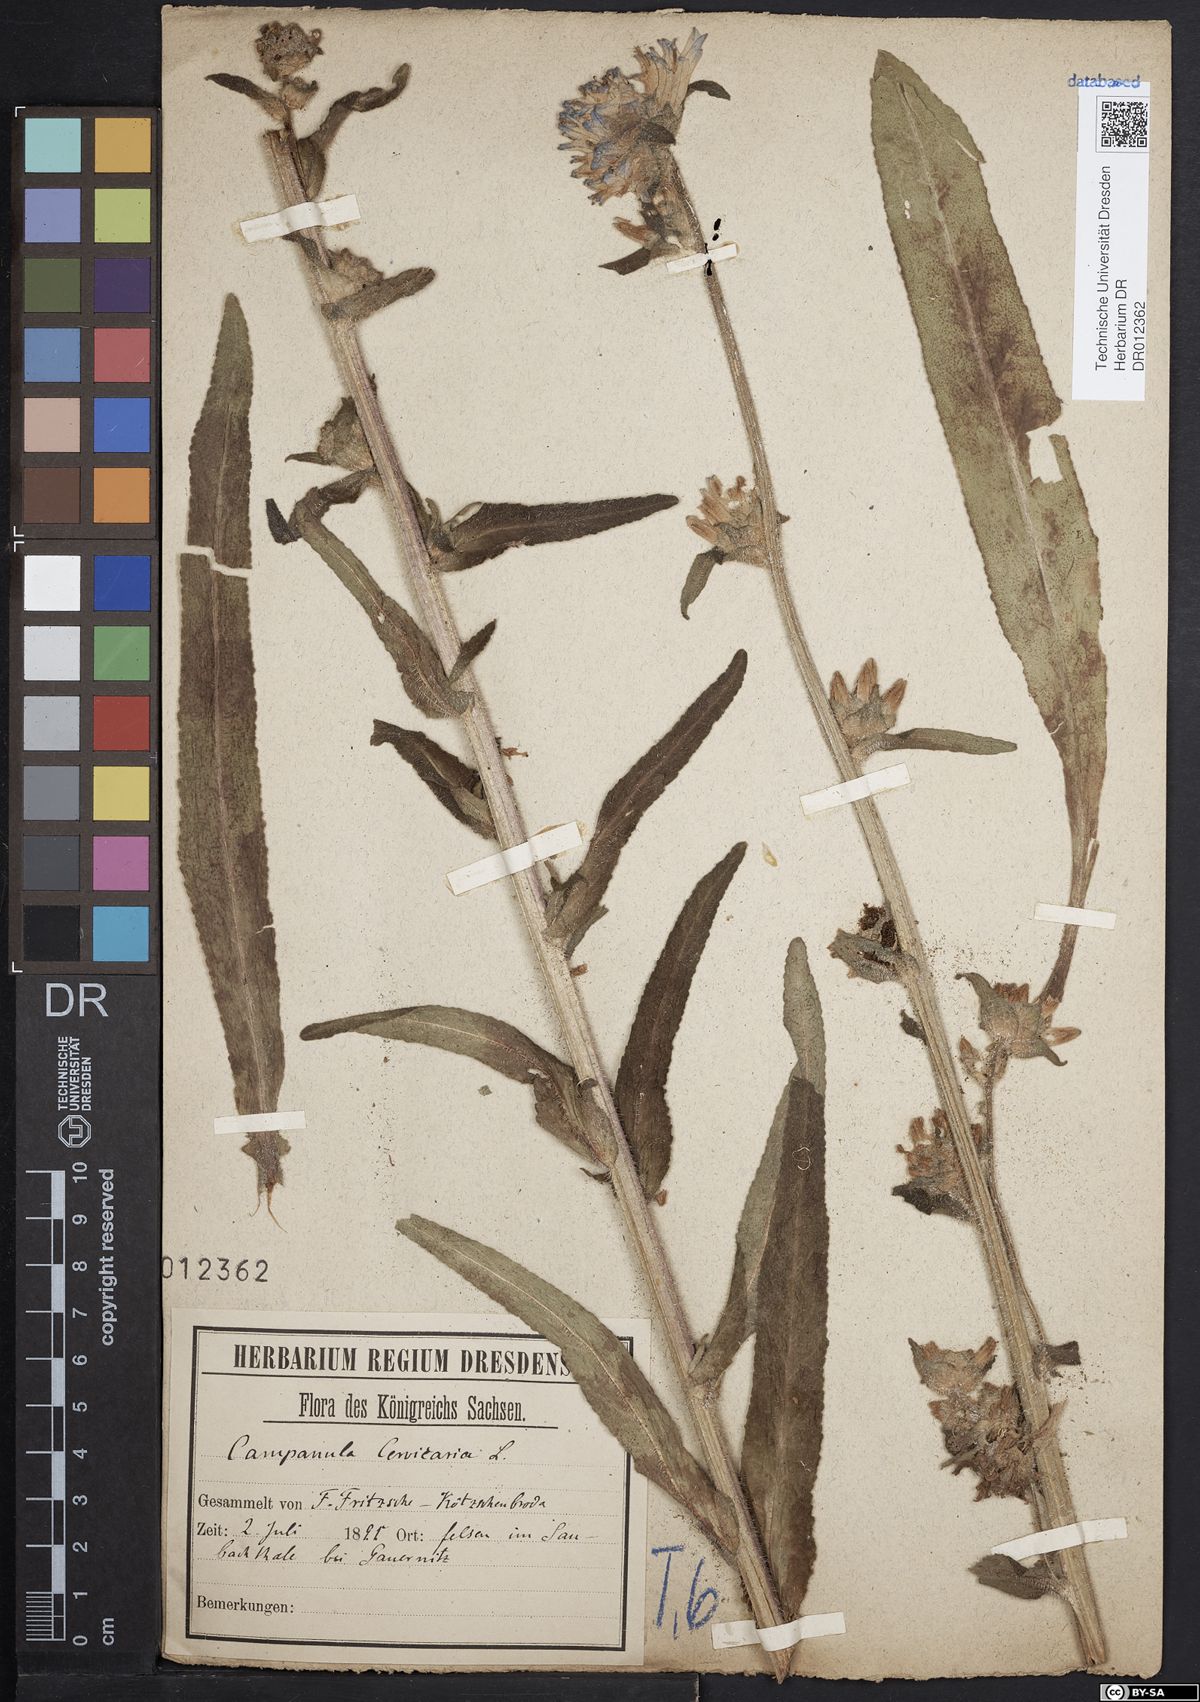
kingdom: Plantae
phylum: Tracheophyta
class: Magnoliopsida
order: Asterales
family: Campanulaceae
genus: Campanula
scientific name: Campanula cervicaria
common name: Bristly bellflower
